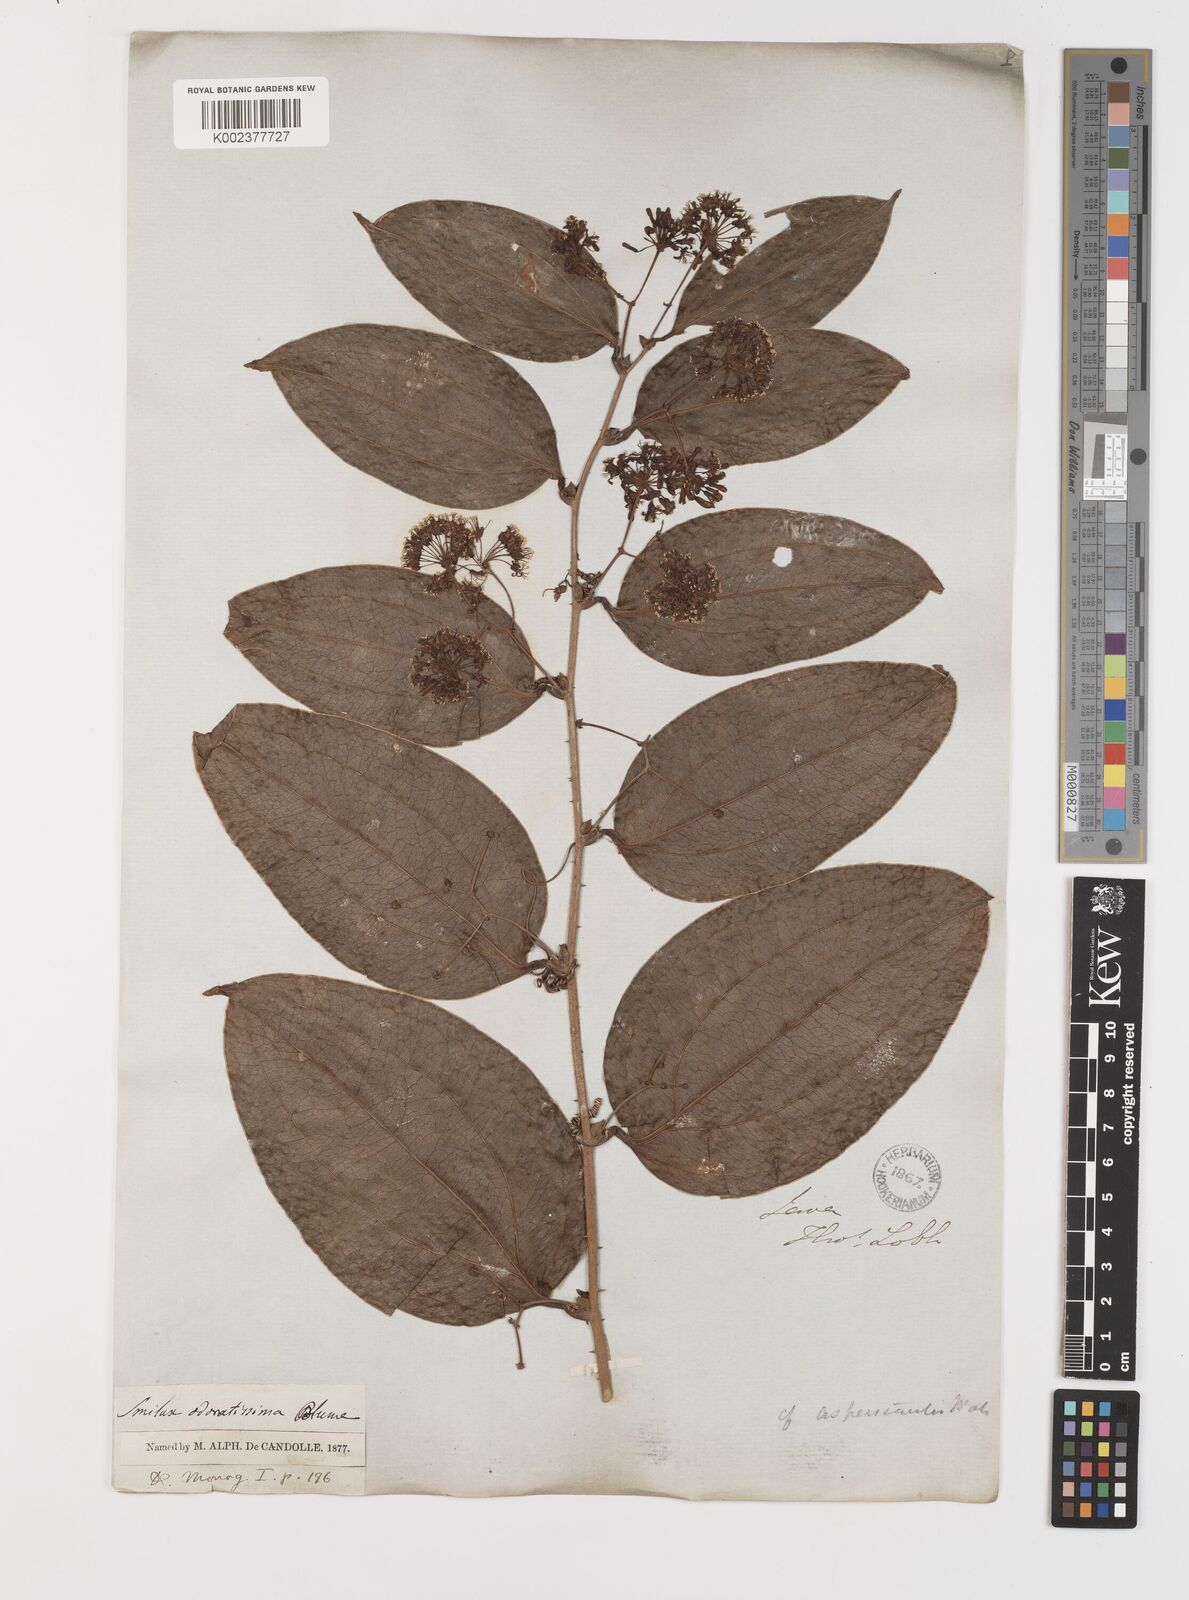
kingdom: Plantae
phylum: Tracheophyta
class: Liliopsida
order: Liliales
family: Smilacaceae
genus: Smilax
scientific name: Smilax odoratissima
